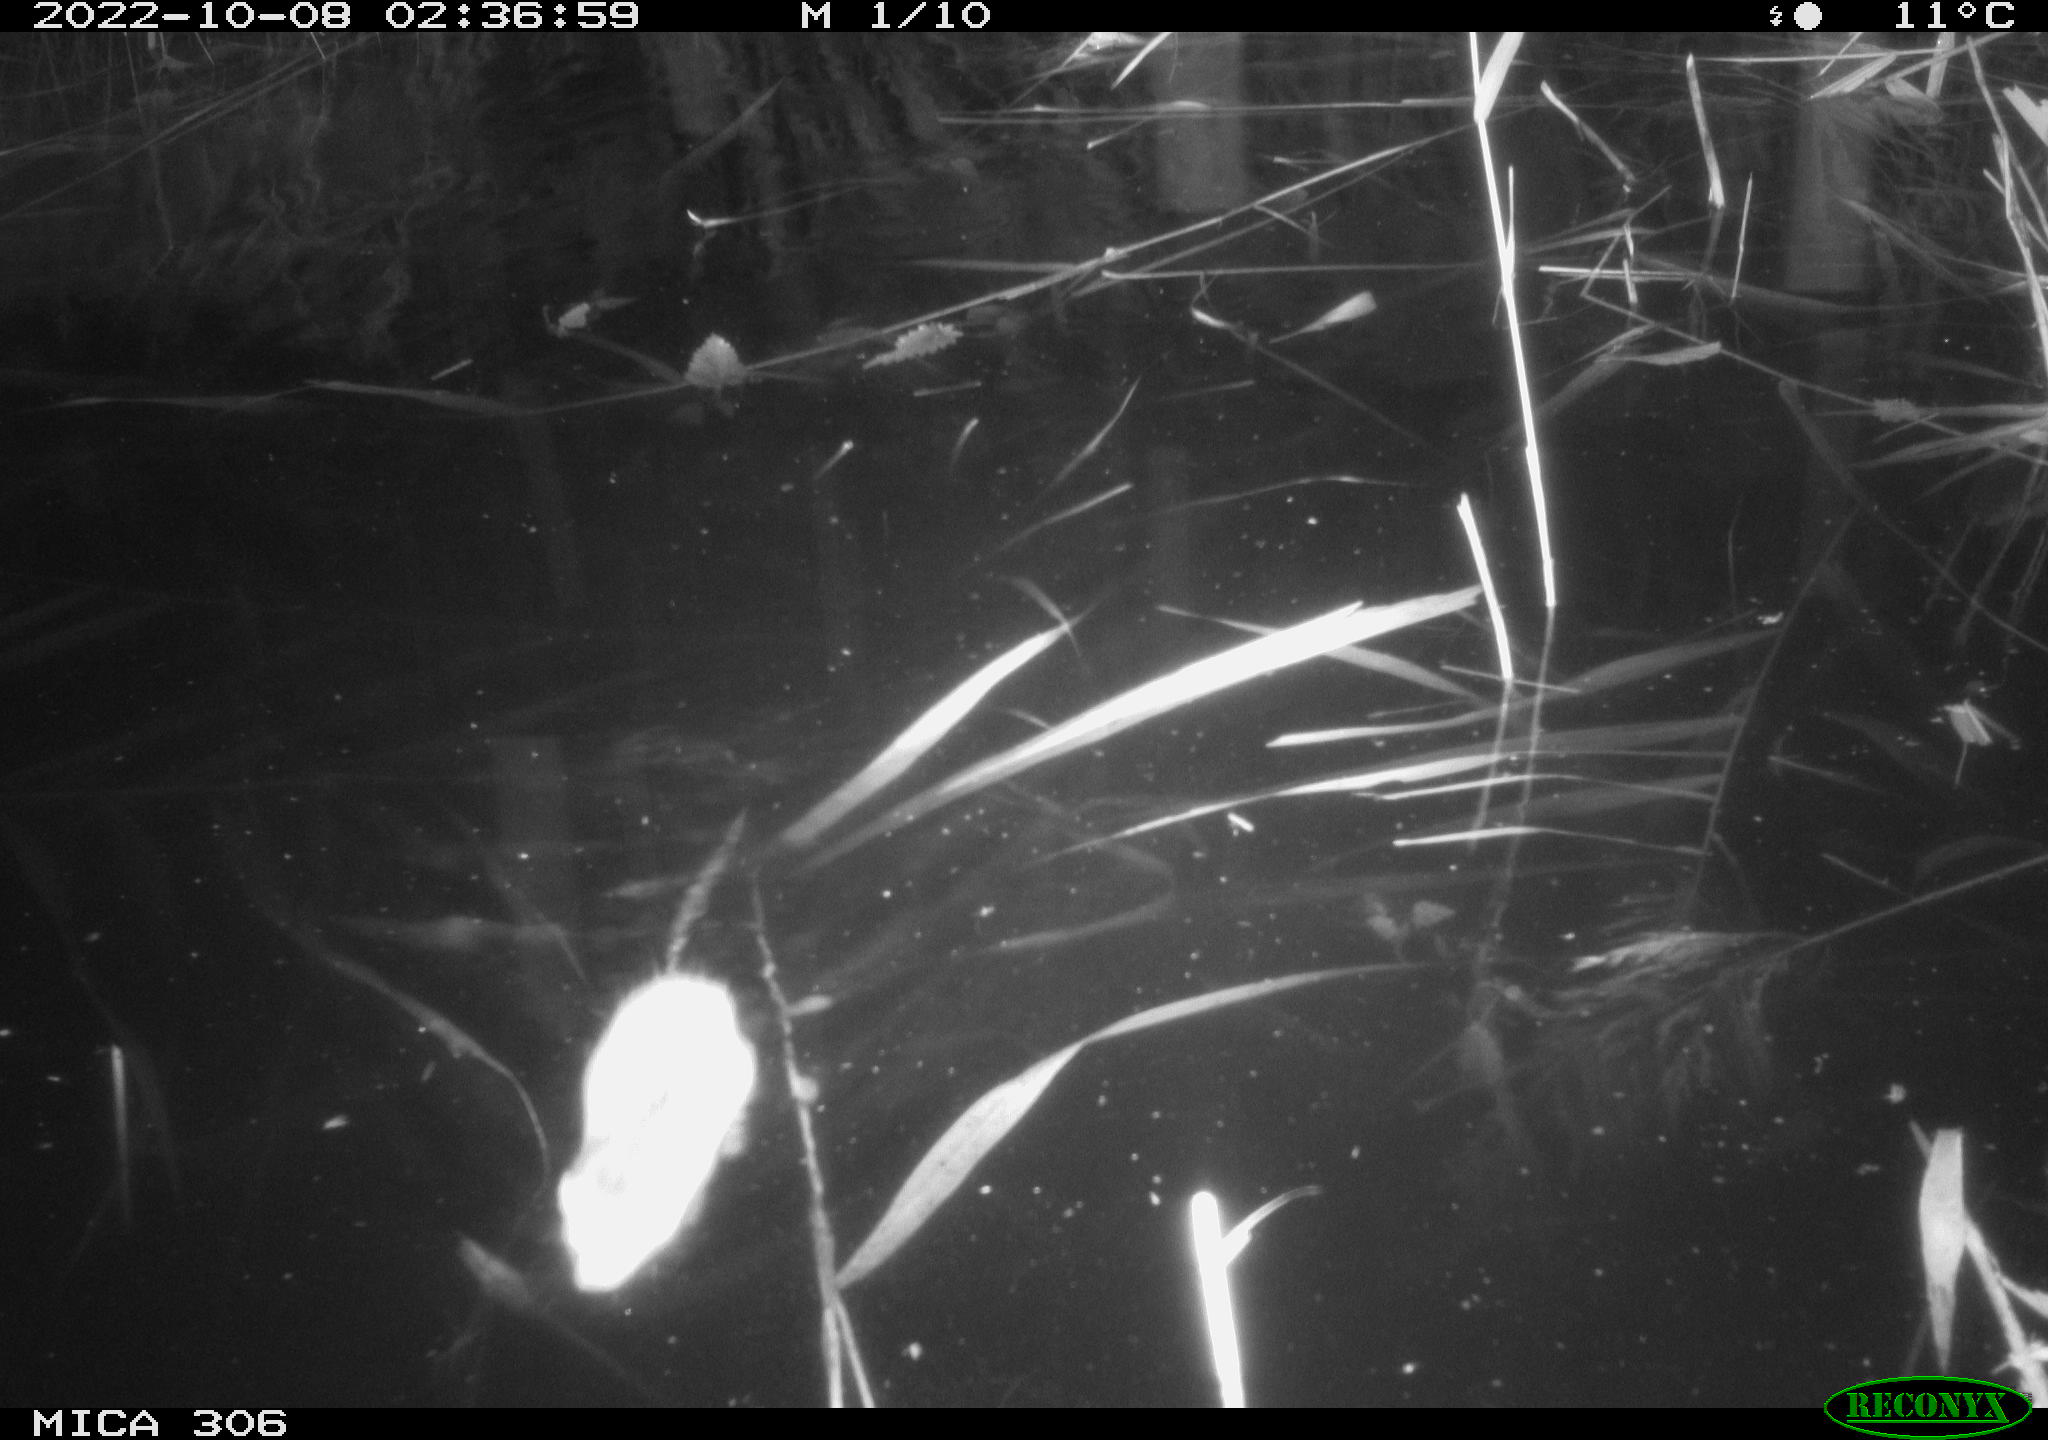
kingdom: Animalia
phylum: Chordata
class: Mammalia
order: Rodentia
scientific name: Rodentia
